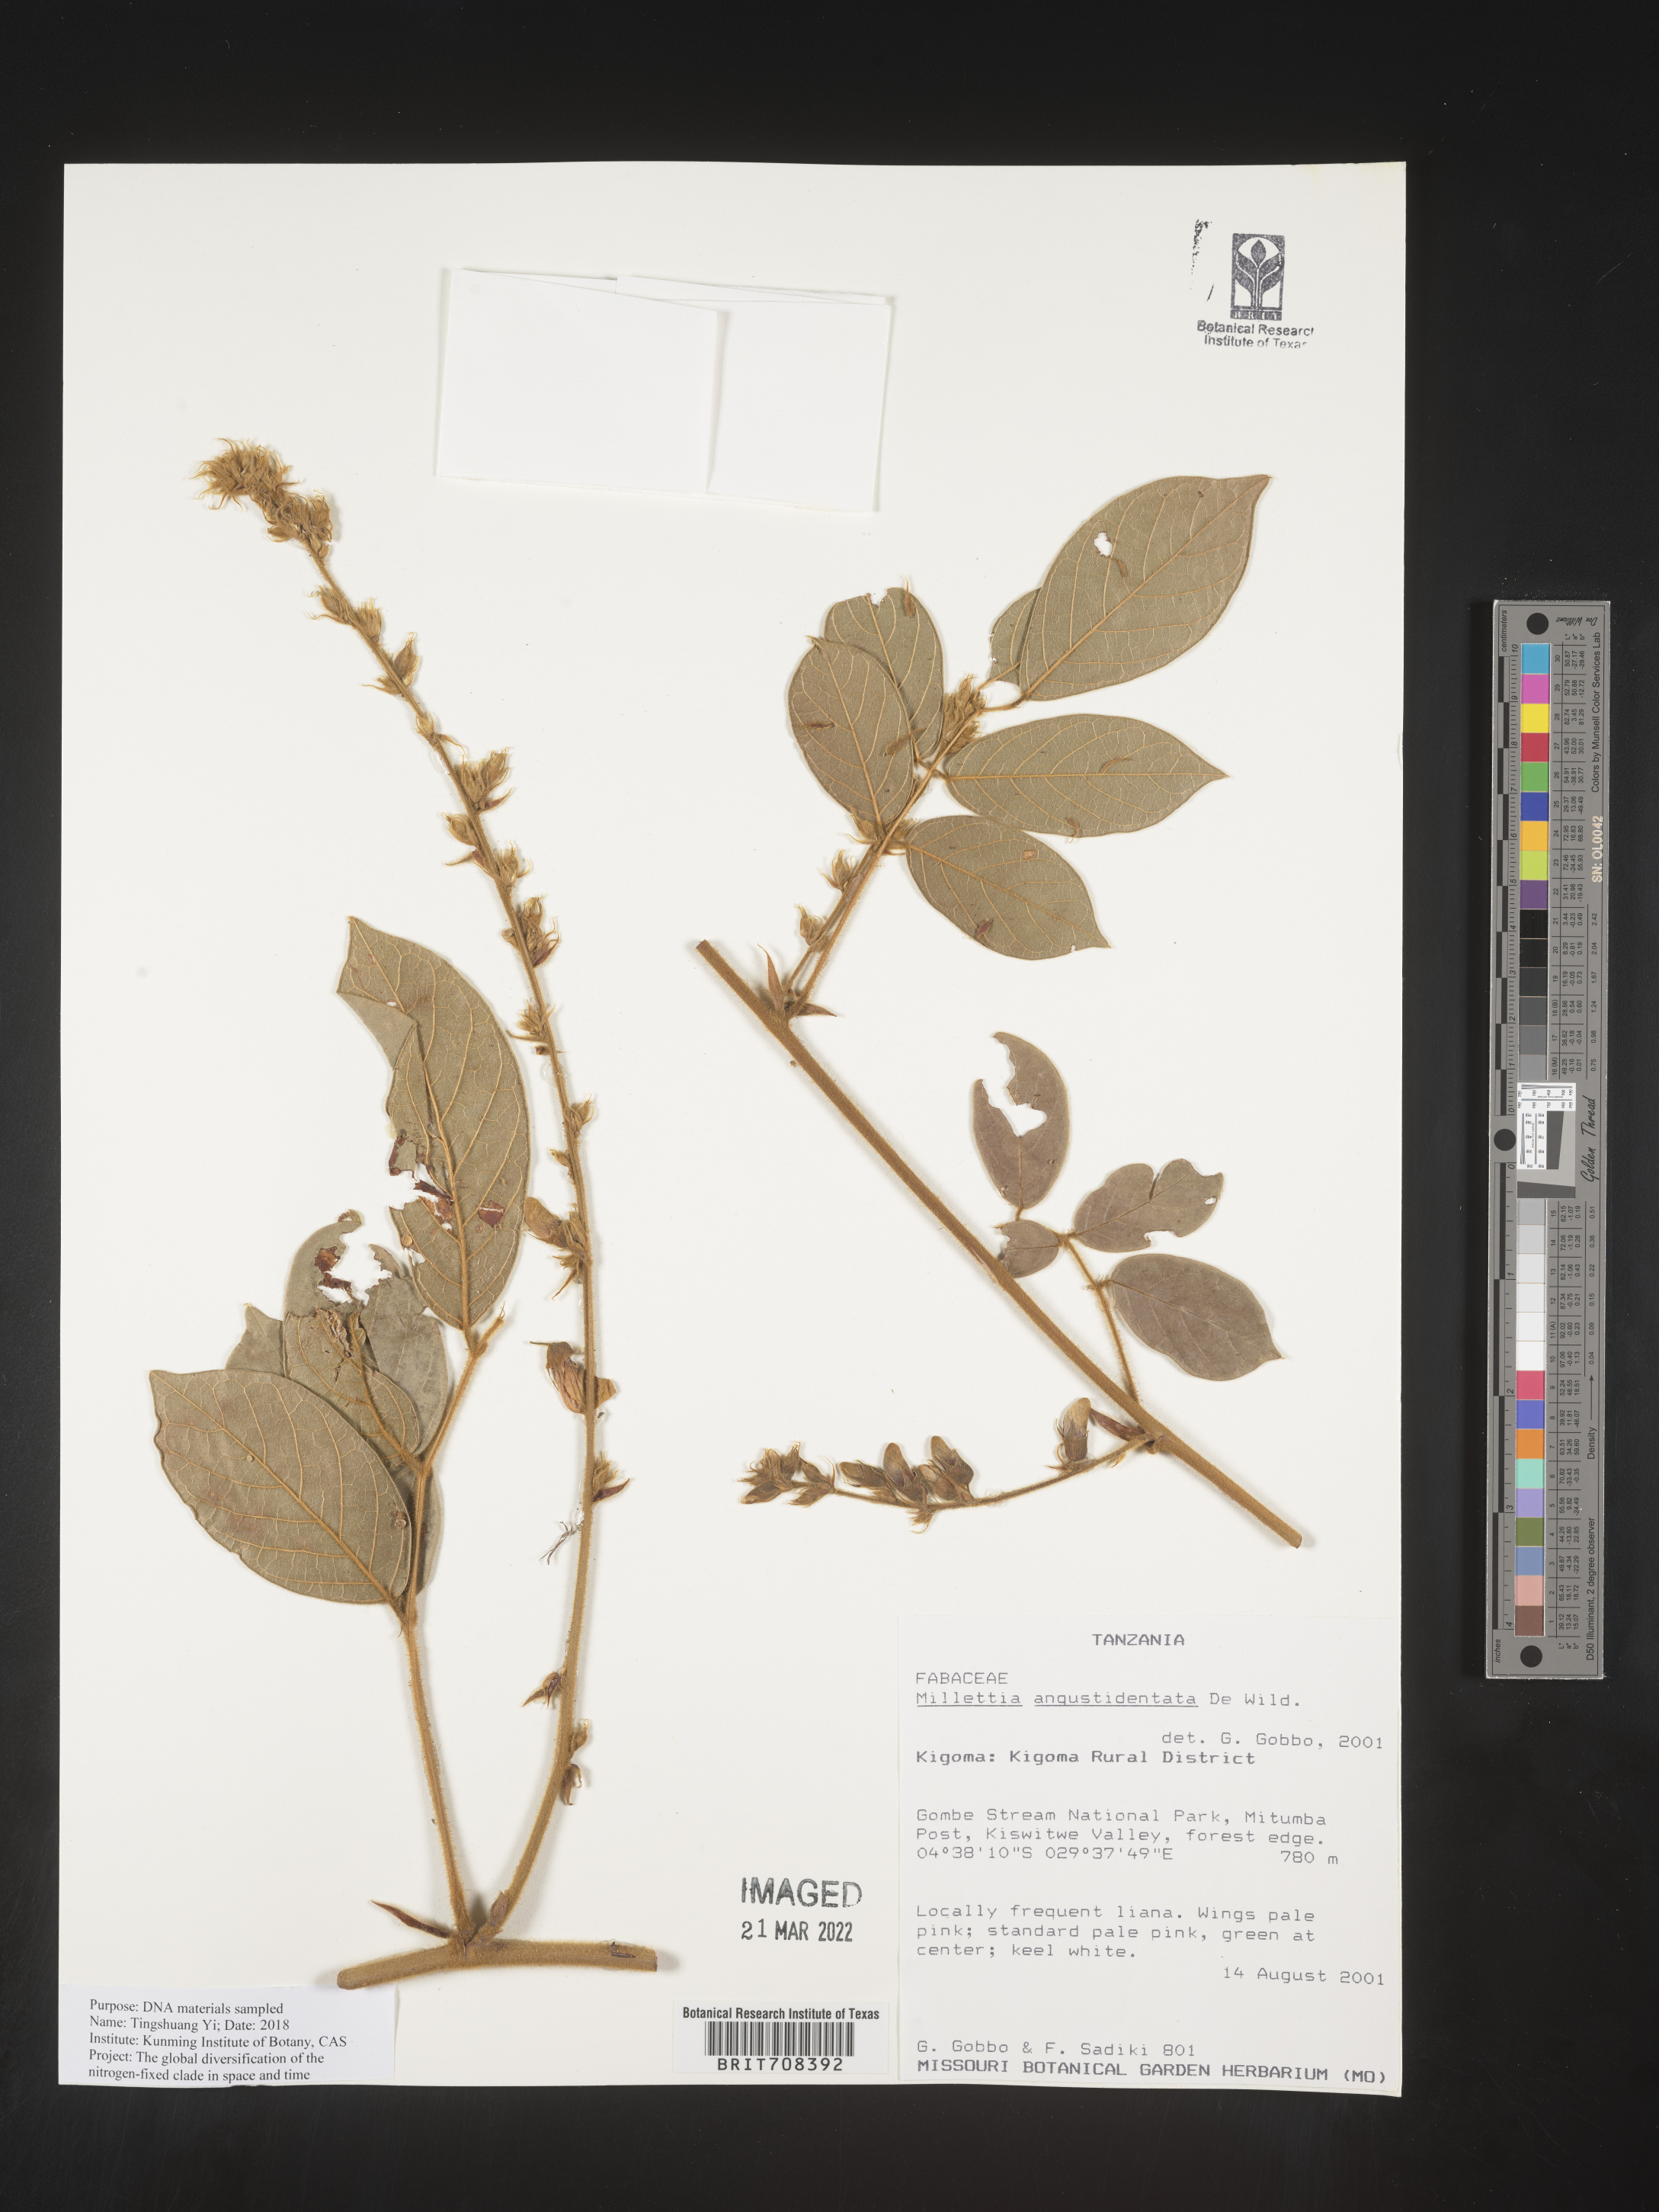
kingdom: Plantae
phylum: Tracheophyta
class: Magnoliopsida
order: Fabales
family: Fabaceae
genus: Millettia
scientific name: Millettia
